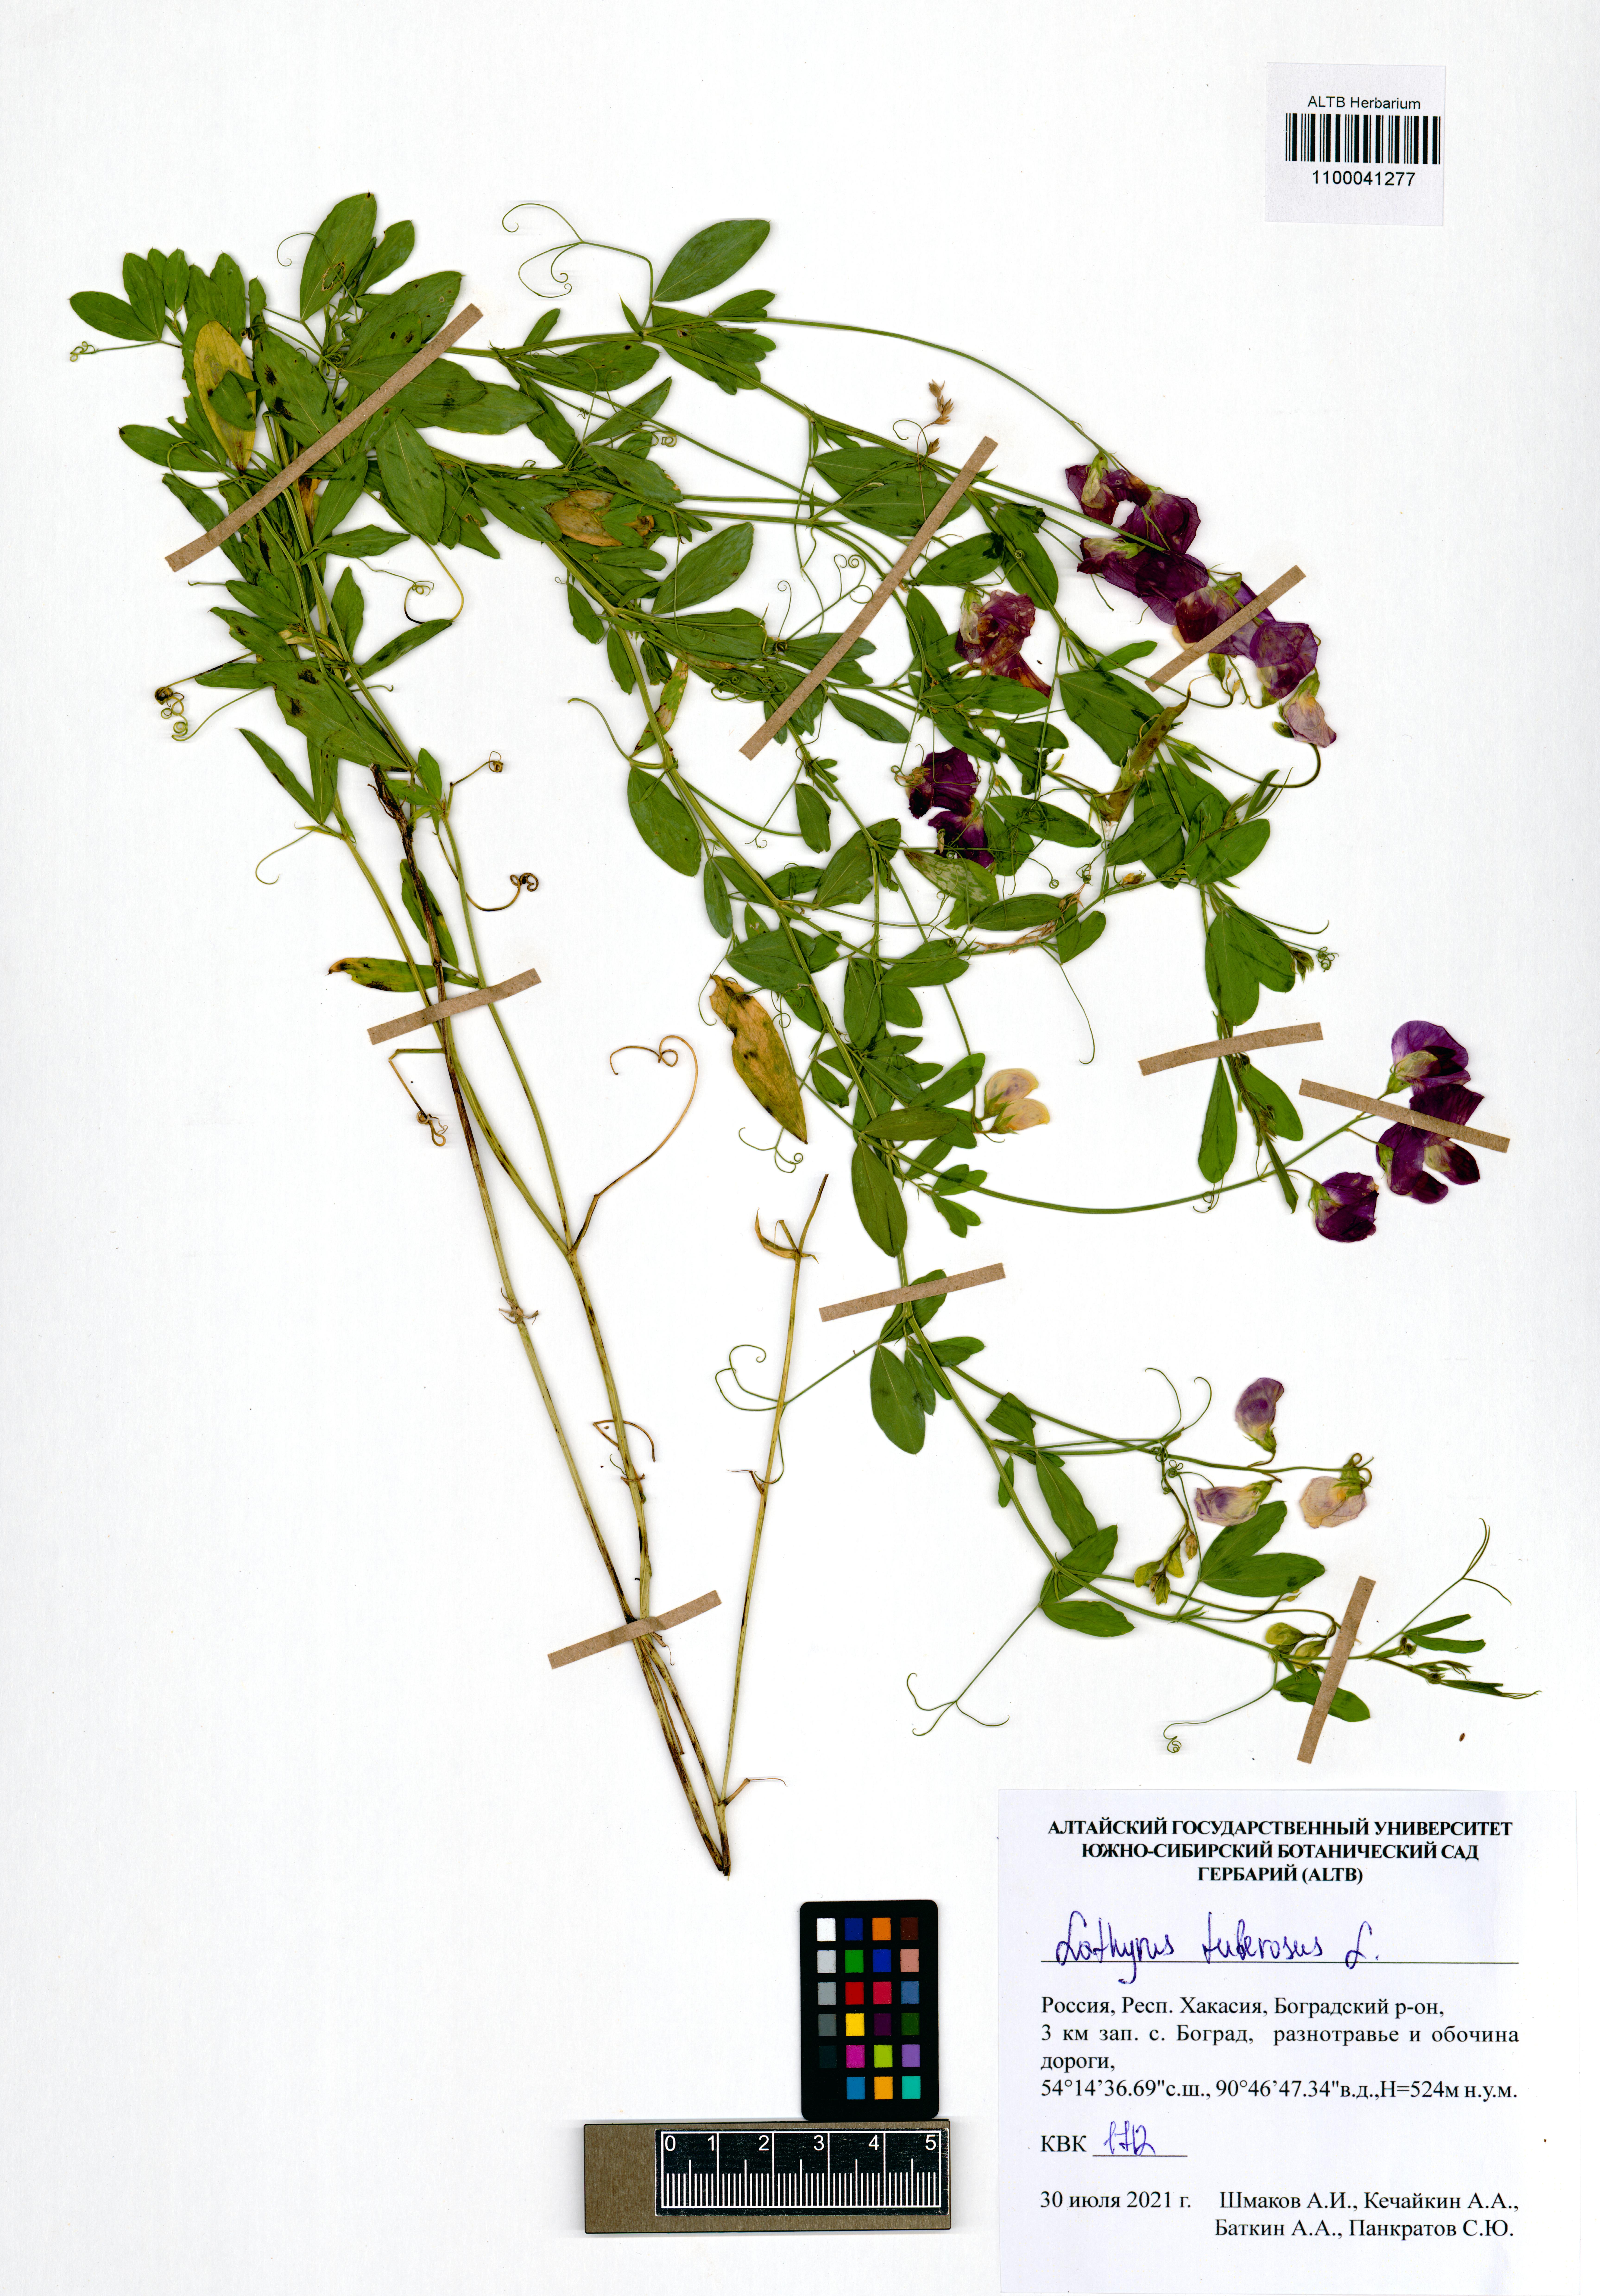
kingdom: Plantae
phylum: Tracheophyta
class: Magnoliopsida
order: Fabales
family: Fabaceae
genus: Lathyrus
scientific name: Lathyrus tuberosus
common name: Tuberous pea
